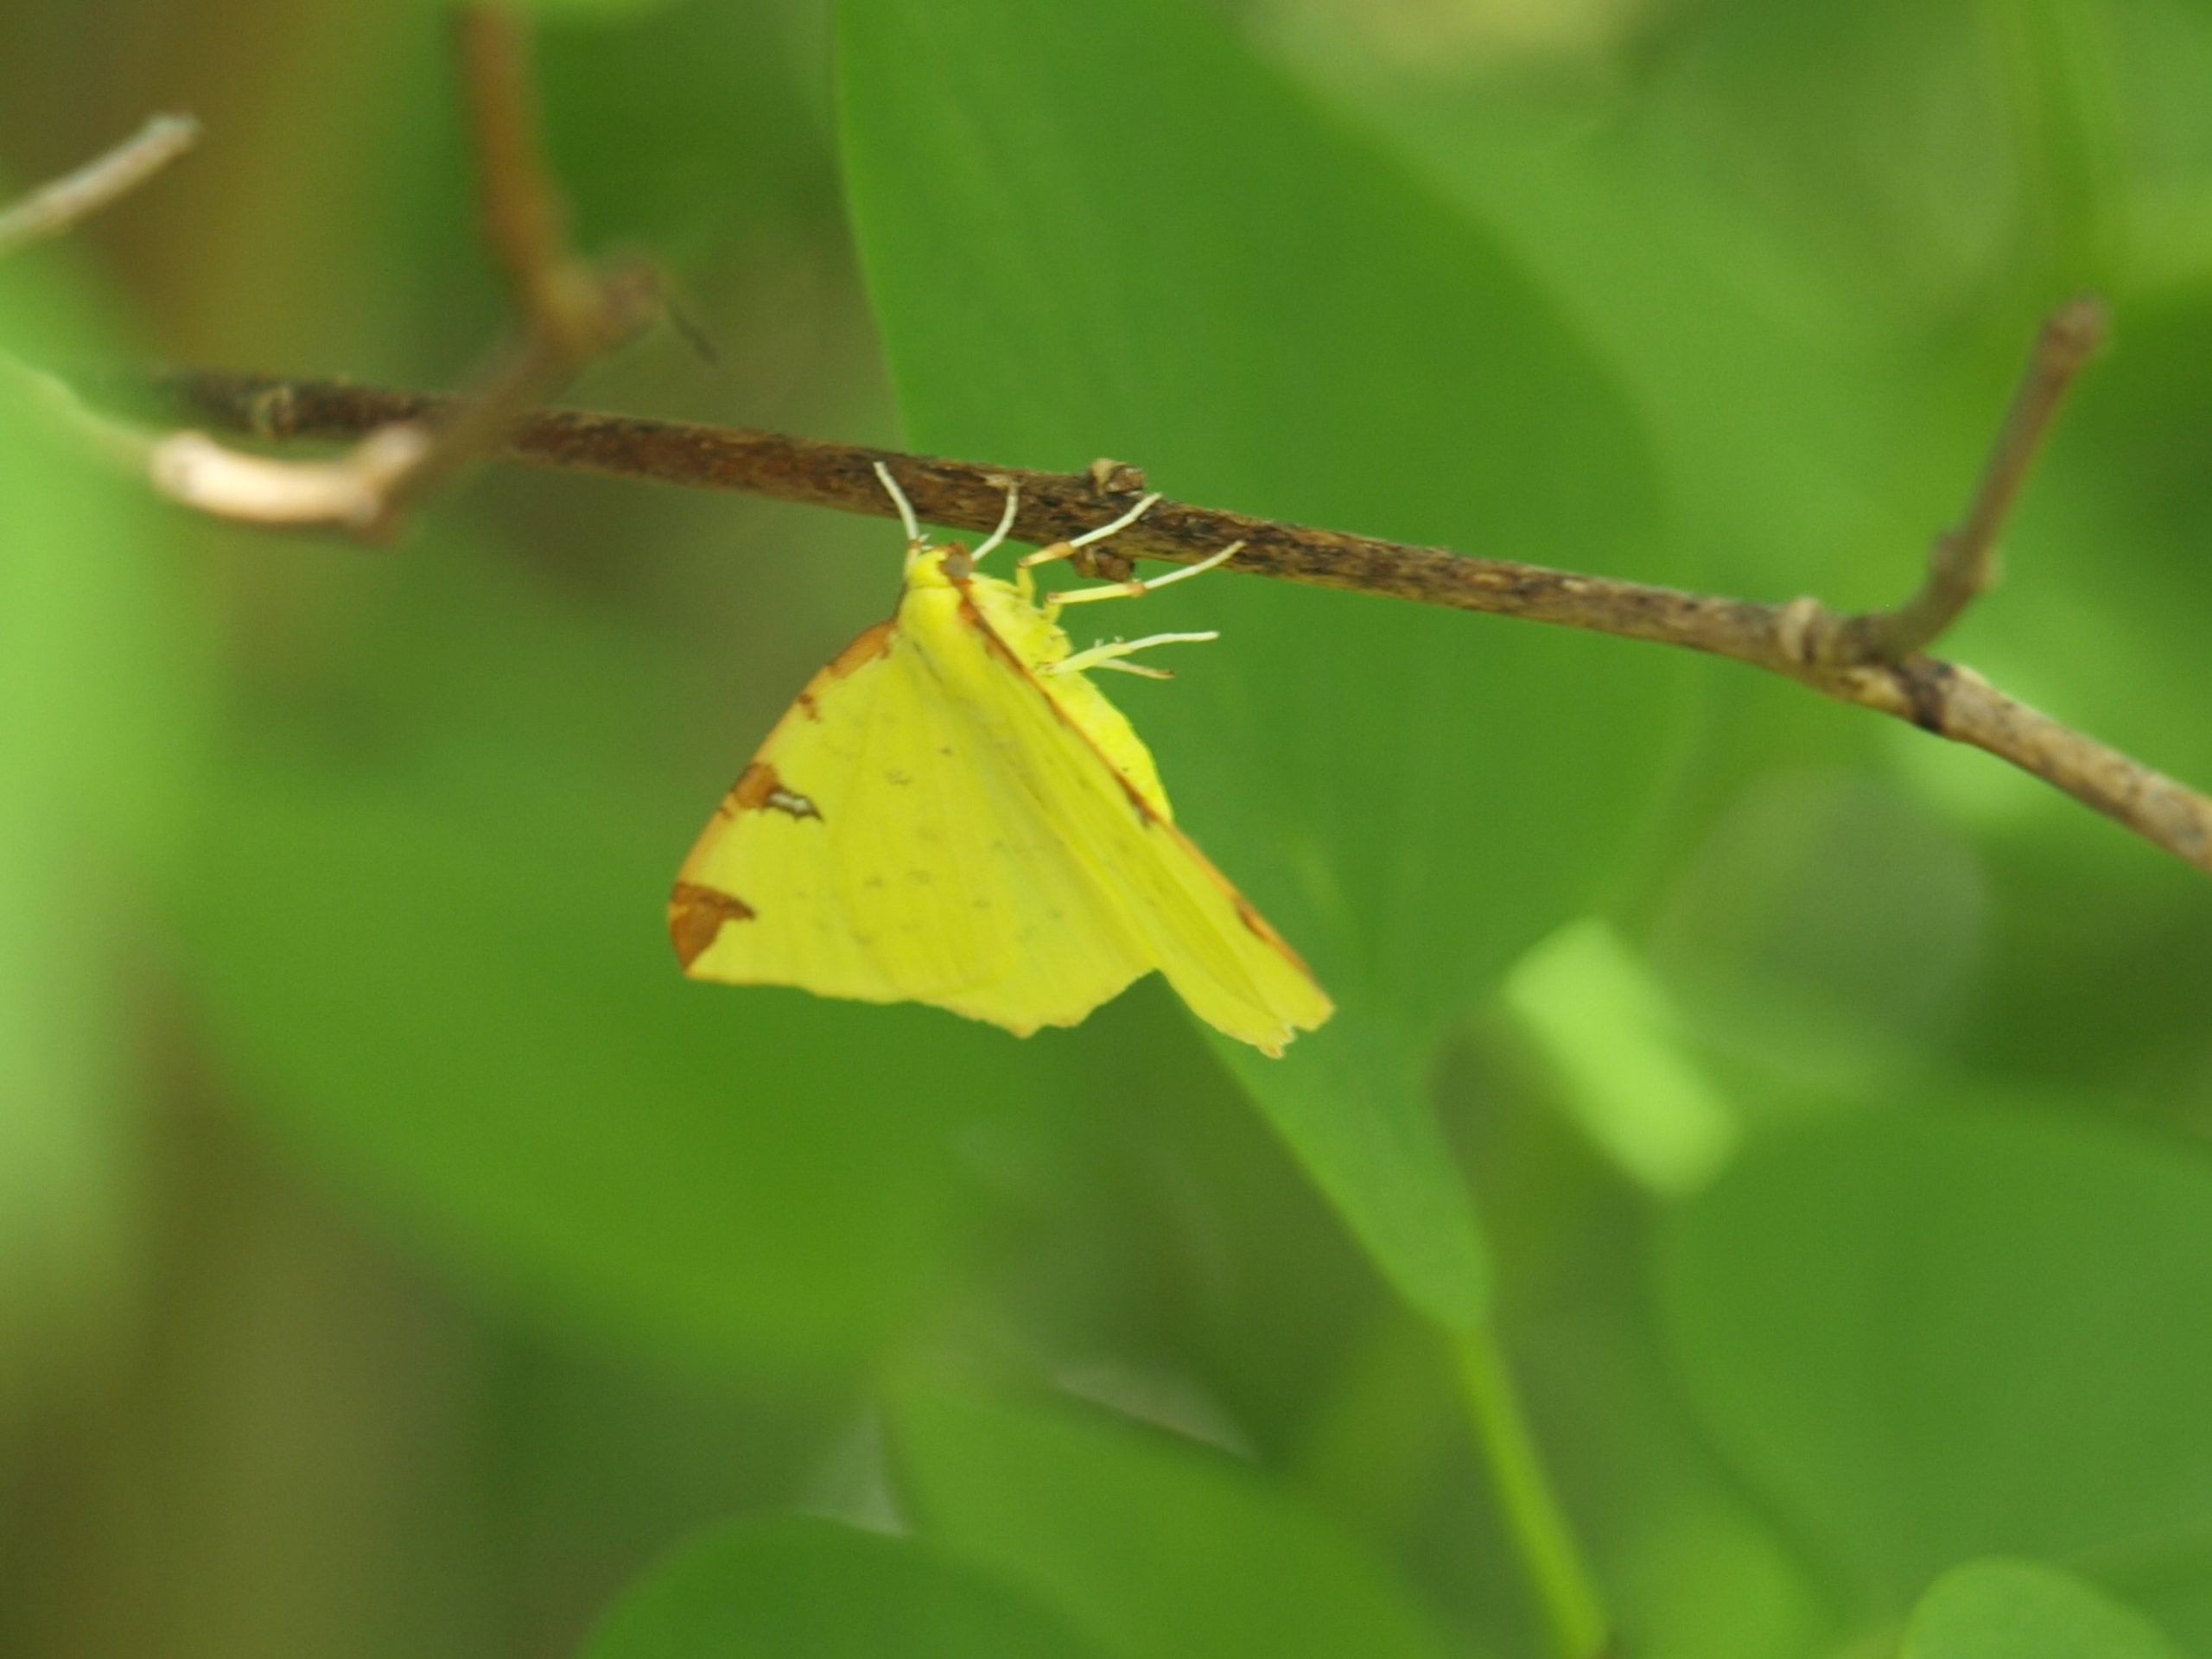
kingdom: Animalia
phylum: Arthropoda
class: Insecta
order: Lepidoptera
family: Geometridae
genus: Opisthograptis
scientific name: Opisthograptis luteolata
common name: Citronmåler
